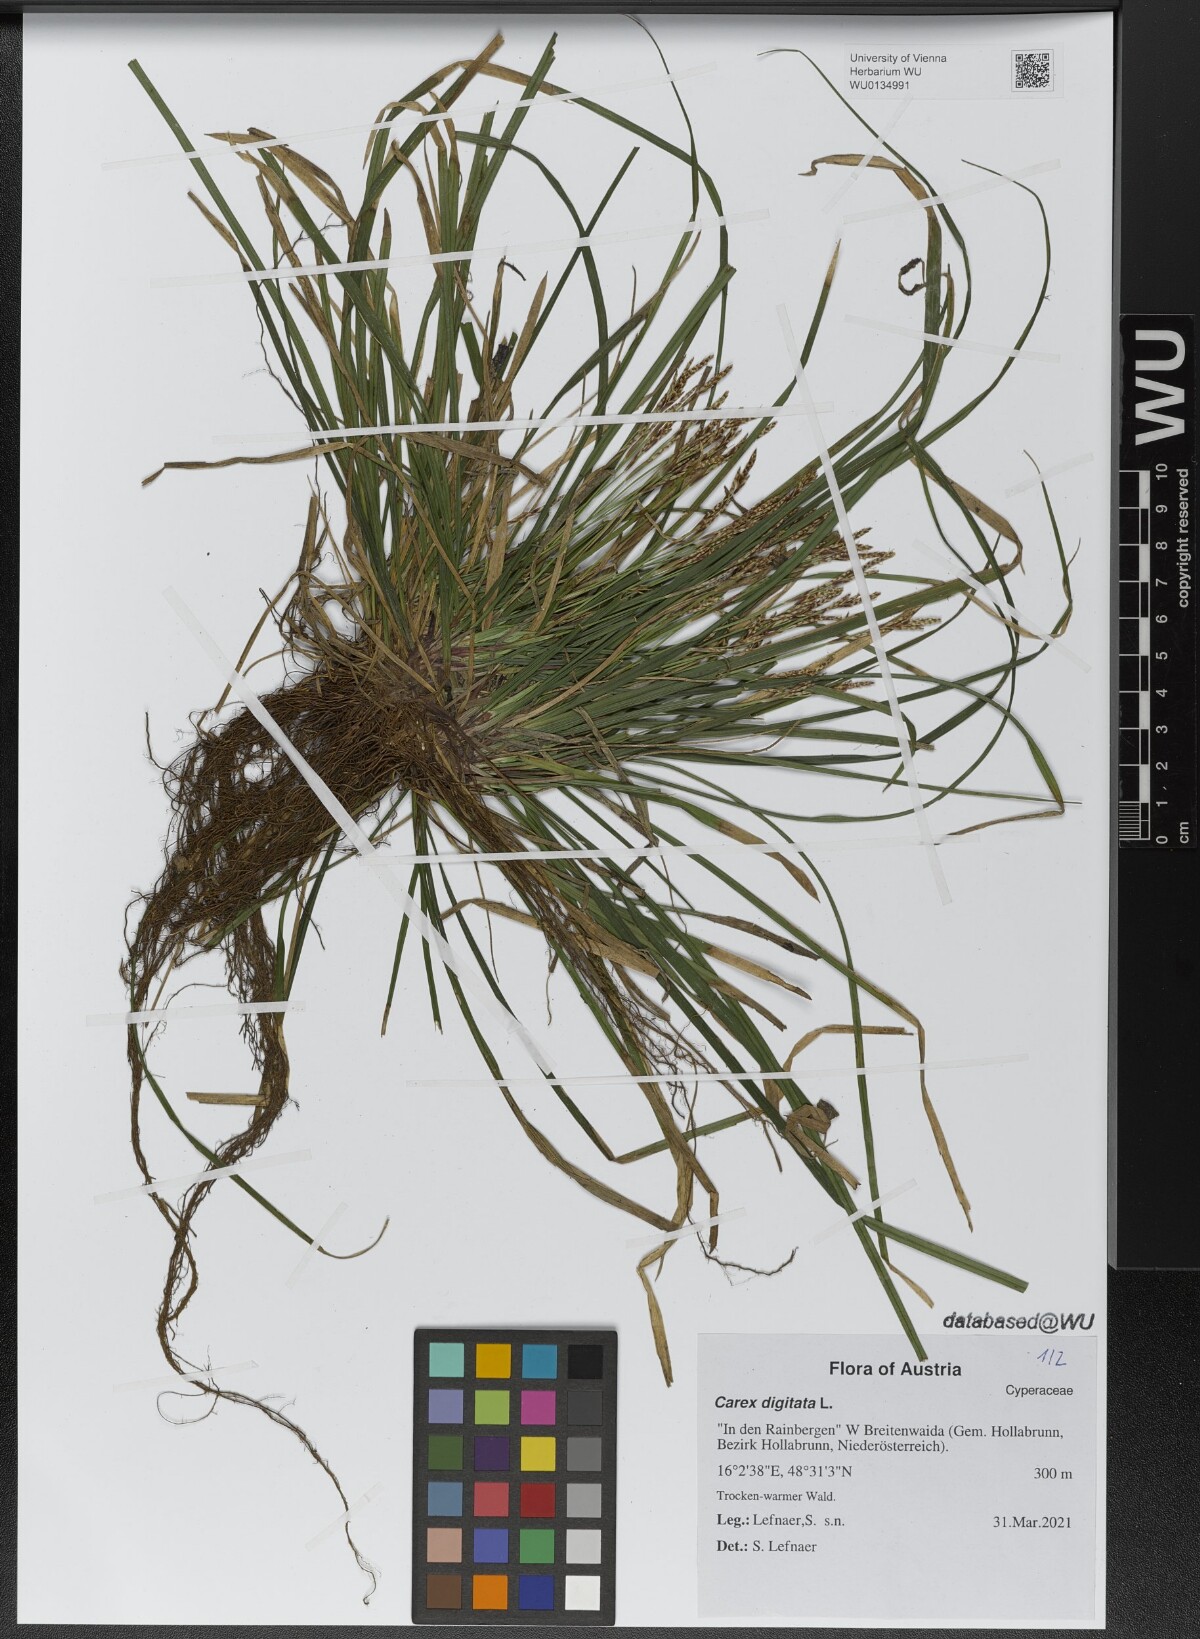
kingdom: Plantae
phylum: Tracheophyta
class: Liliopsida
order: Poales
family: Cyperaceae
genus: Carex
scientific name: Carex digitata
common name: Fingered sedge
